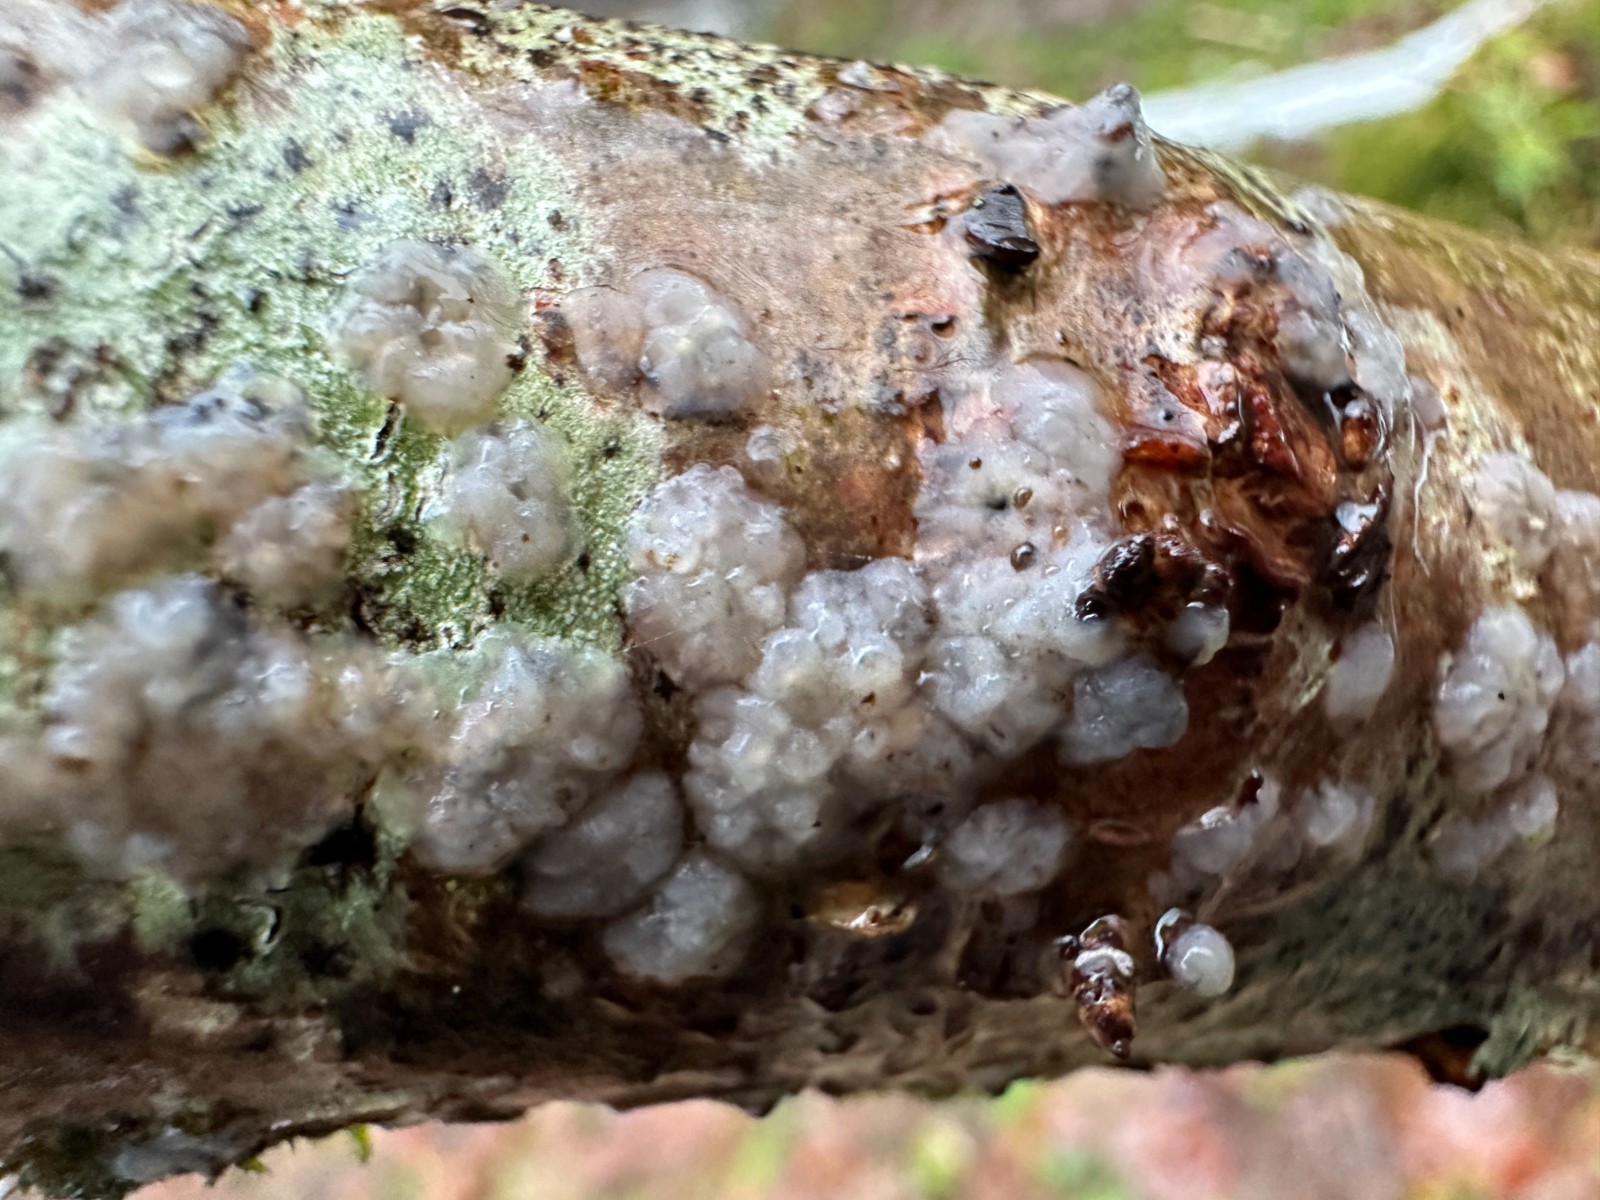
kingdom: Fungi
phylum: Basidiomycota
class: Agaricomycetes
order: Auriculariales
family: Hyaloriaceae
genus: Myxarium
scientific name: Myxarium nucleatum
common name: klar bævretop
